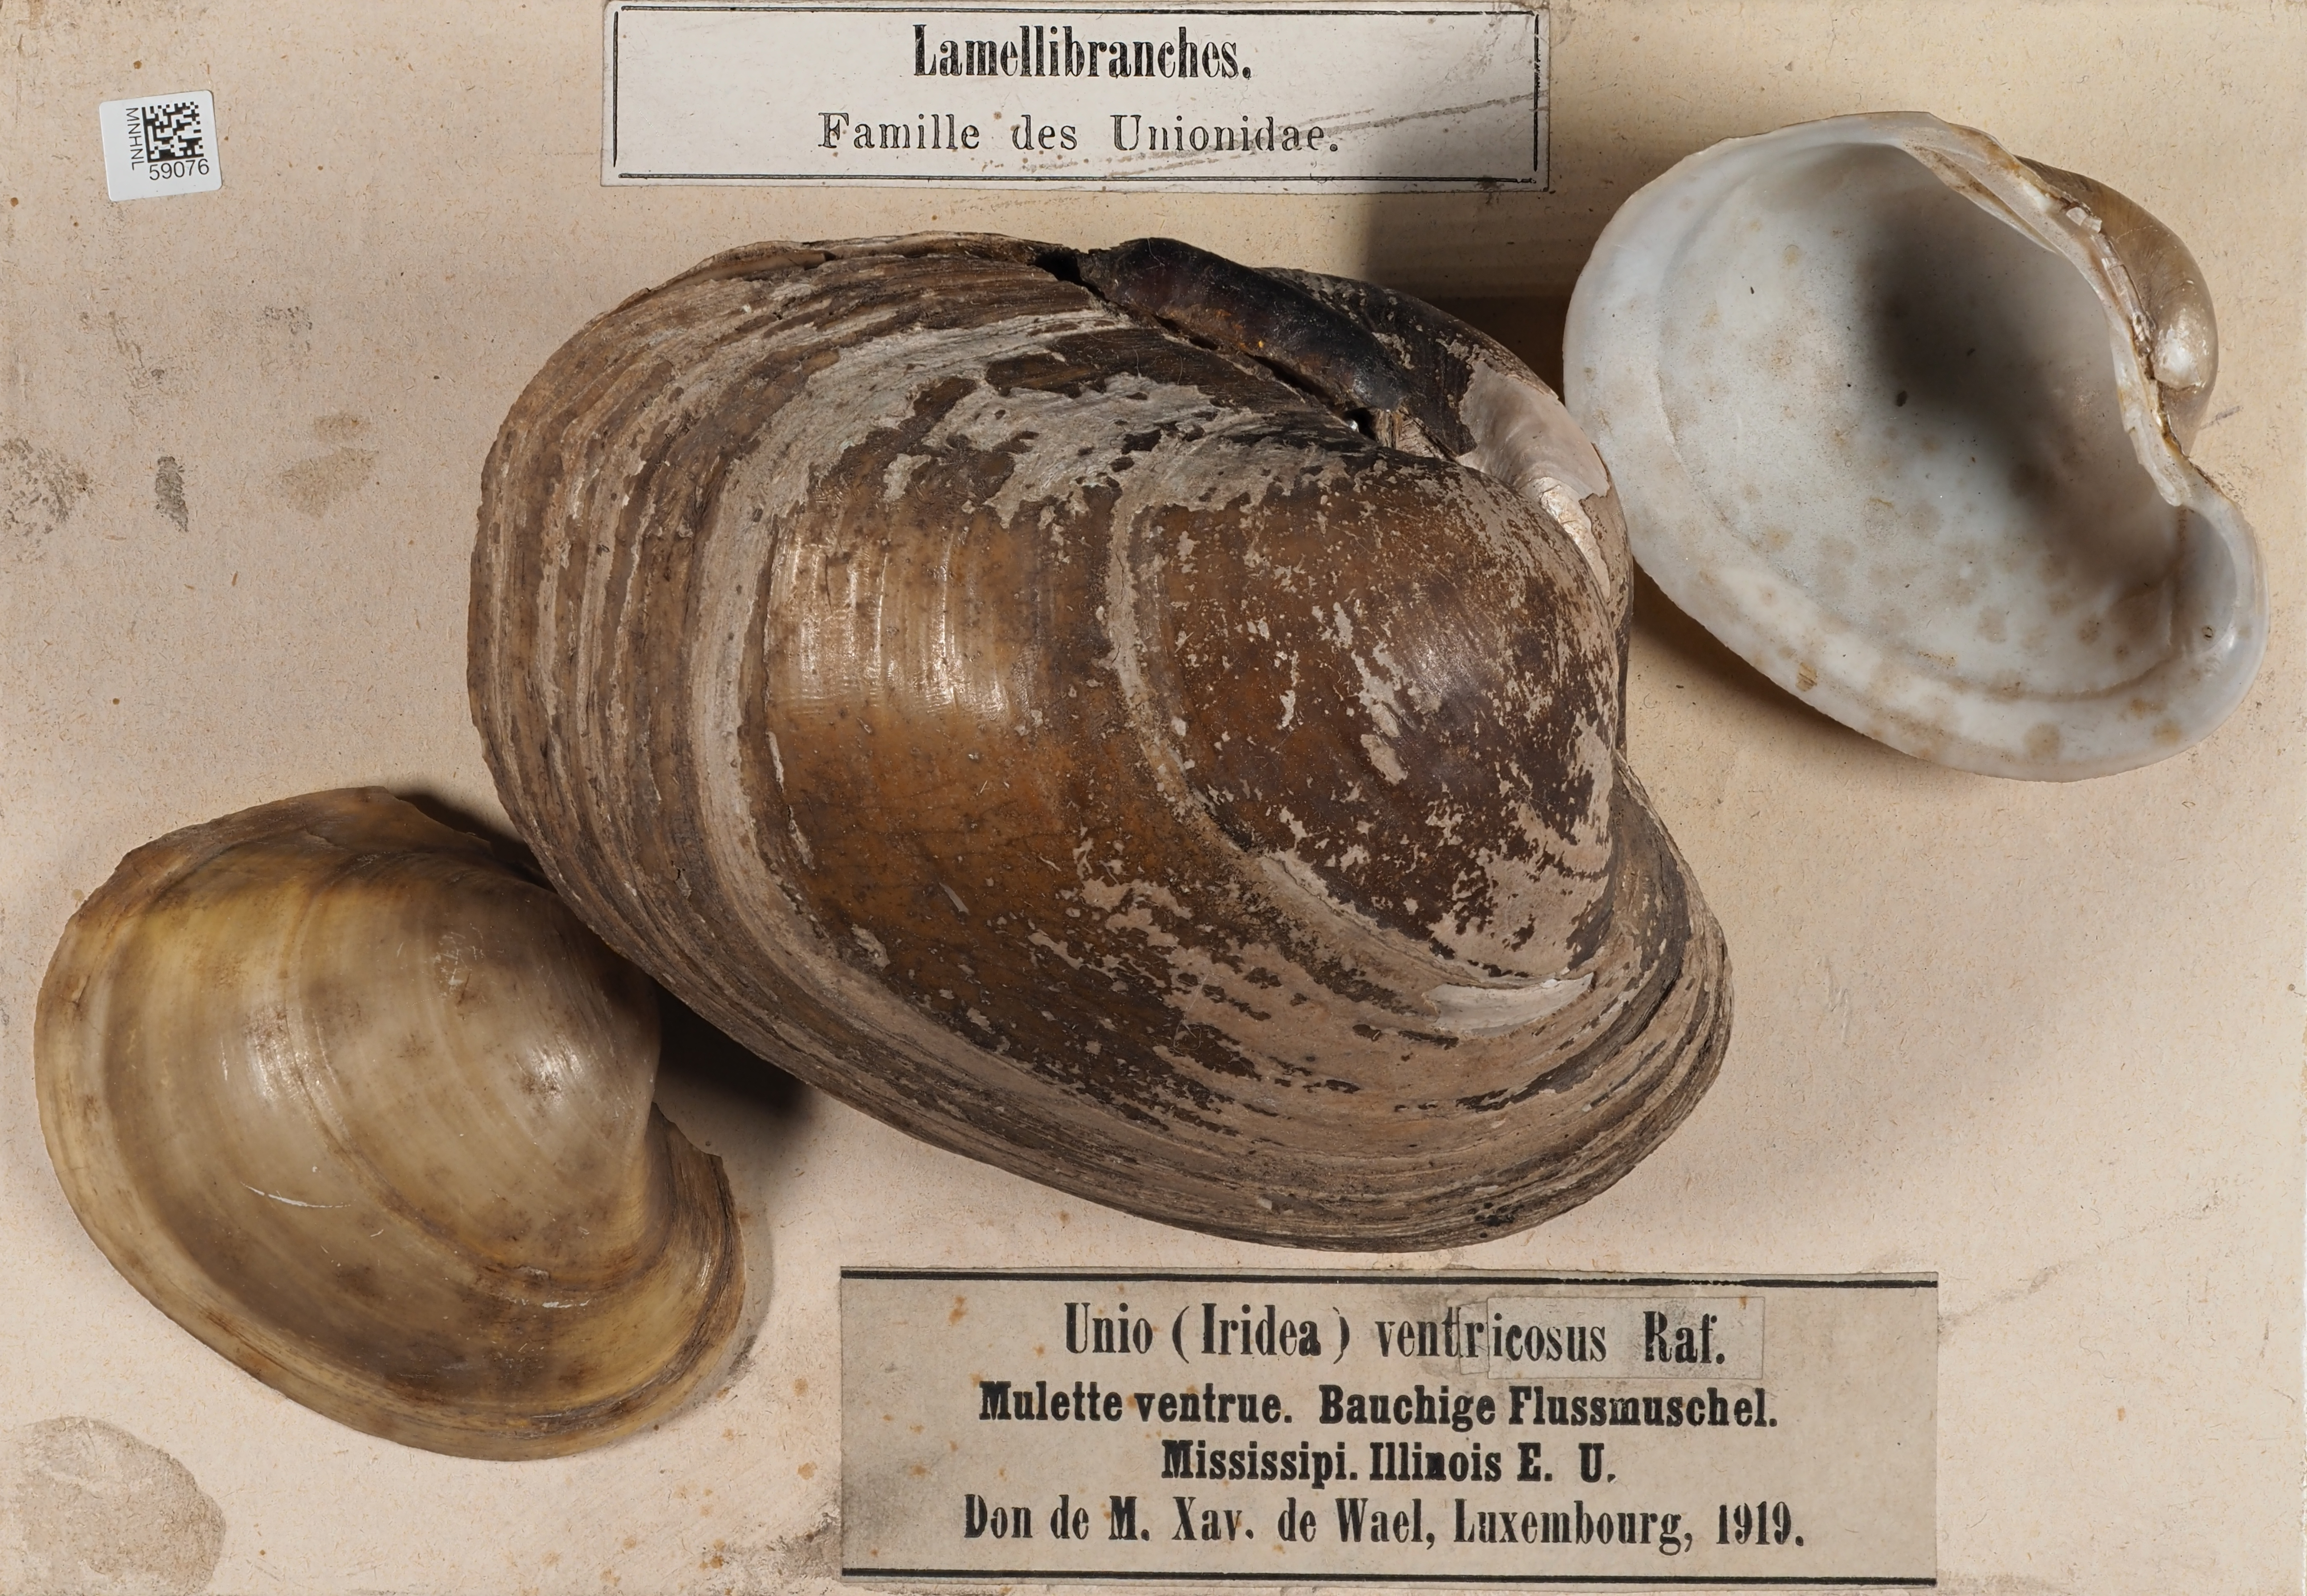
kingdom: Animalia
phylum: Mollusca
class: Bivalvia
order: Unionida
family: Unionidae
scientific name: Unionidae
